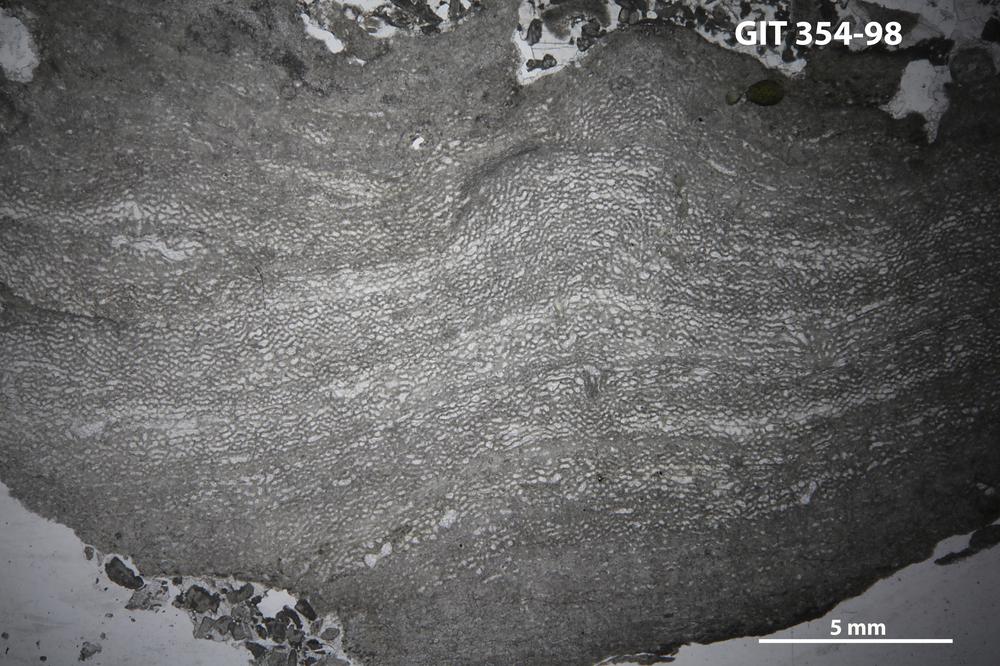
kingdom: Animalia
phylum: Porifera
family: Clathrodictyidae
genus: Clathrodictyon
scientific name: Clathrodictyon kudriavzevi
